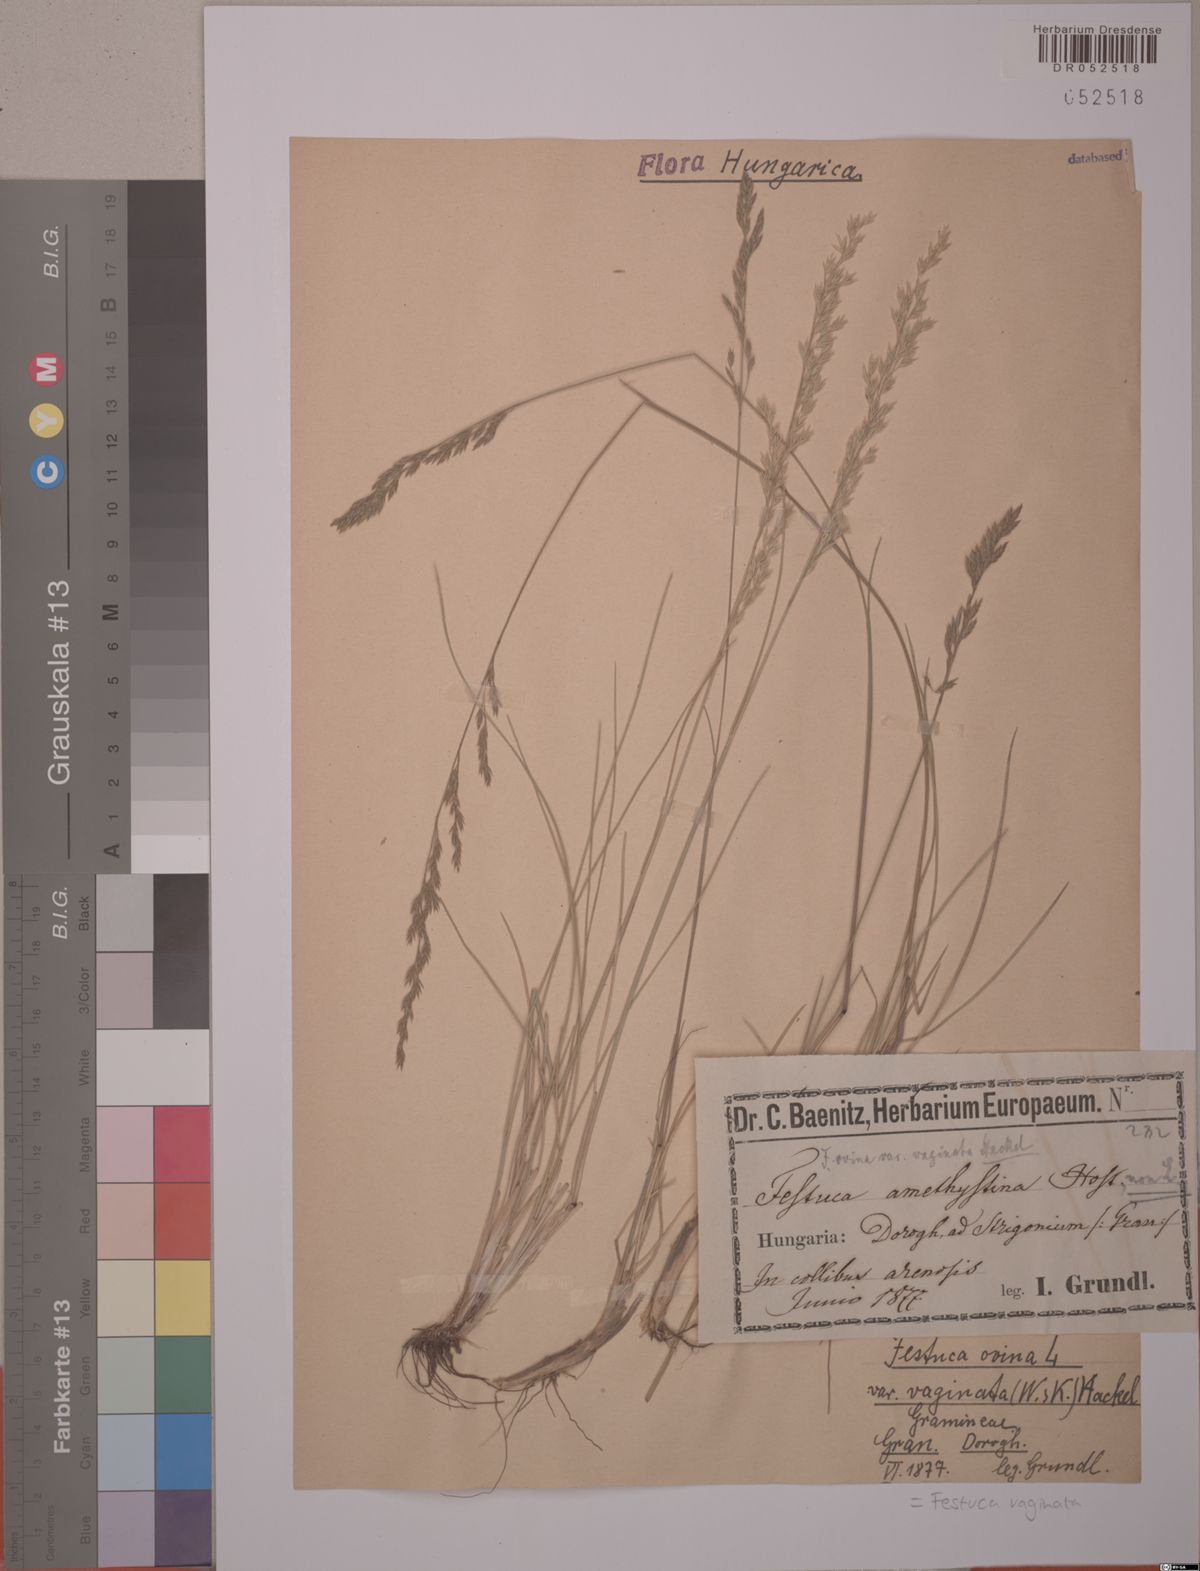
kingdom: Plantae
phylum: Tracheophyta
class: Liliopsida
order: Poales
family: Poaceae
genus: Festuca
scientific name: Festuca vaginata
